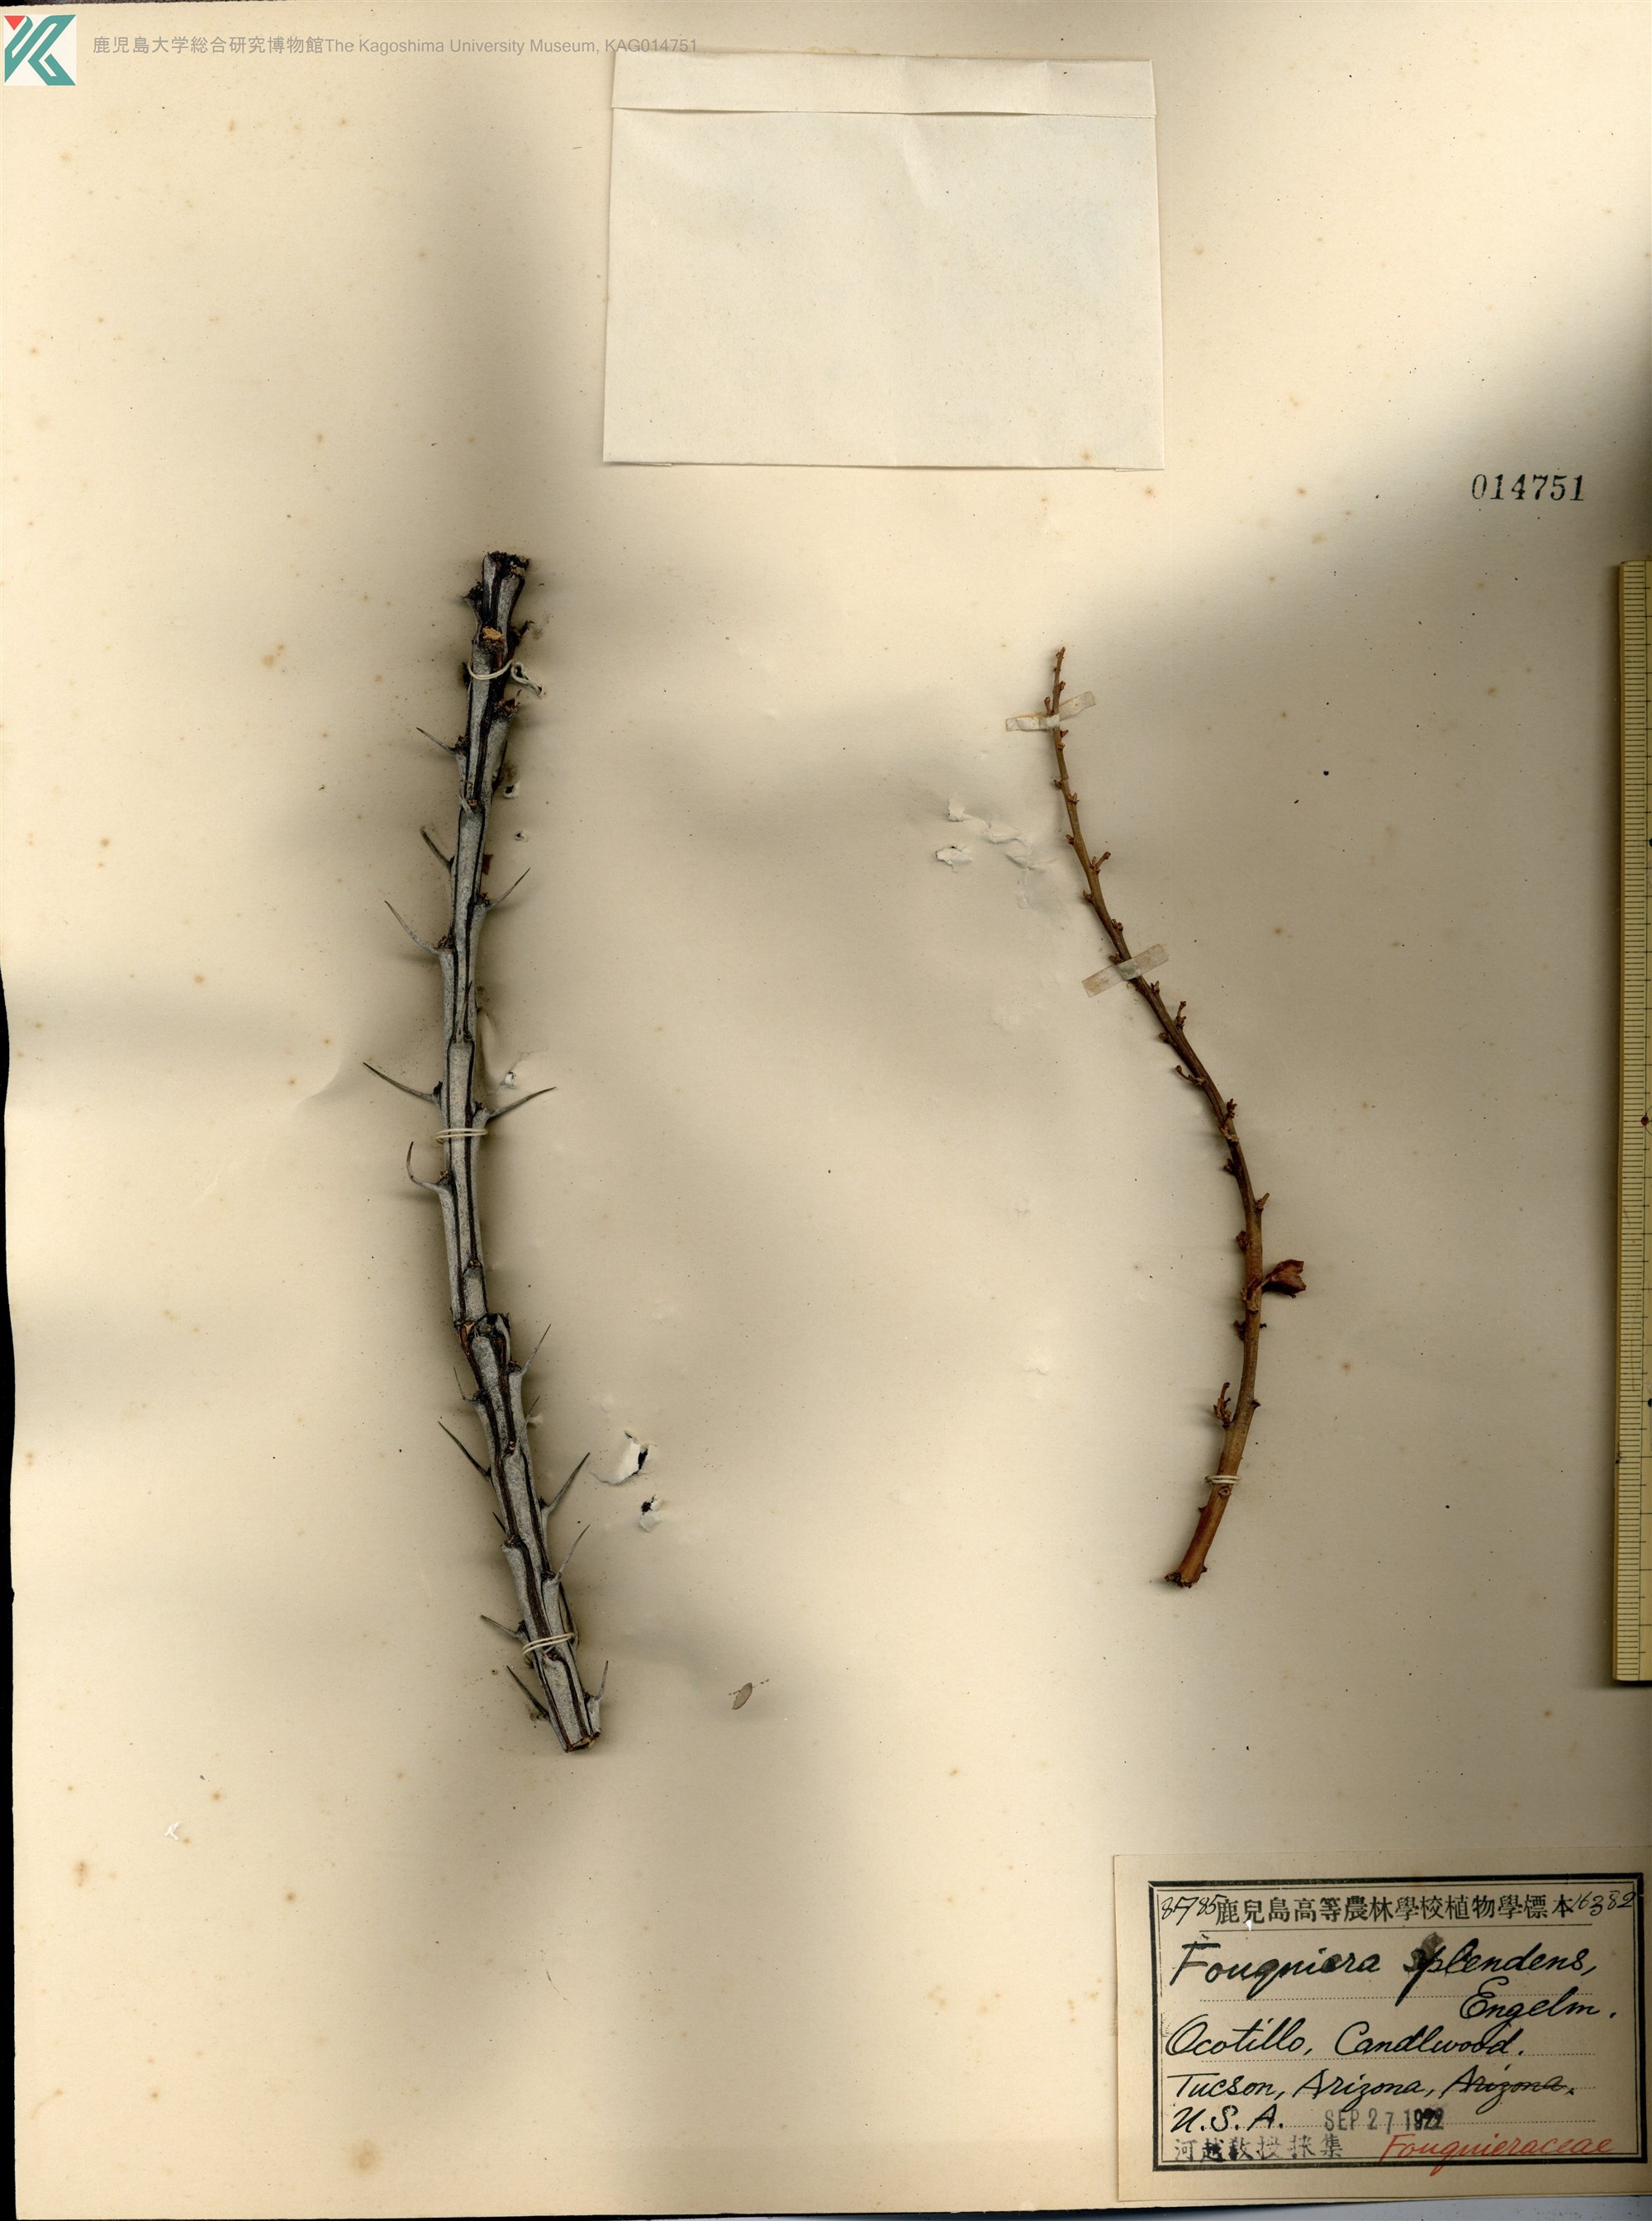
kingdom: Plantae
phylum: Tracheophyta
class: Magnoliopsida
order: Ericales
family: Fouquieriaceae
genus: Fouquieria
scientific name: Fouquieria splendens
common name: Vine-cactus
